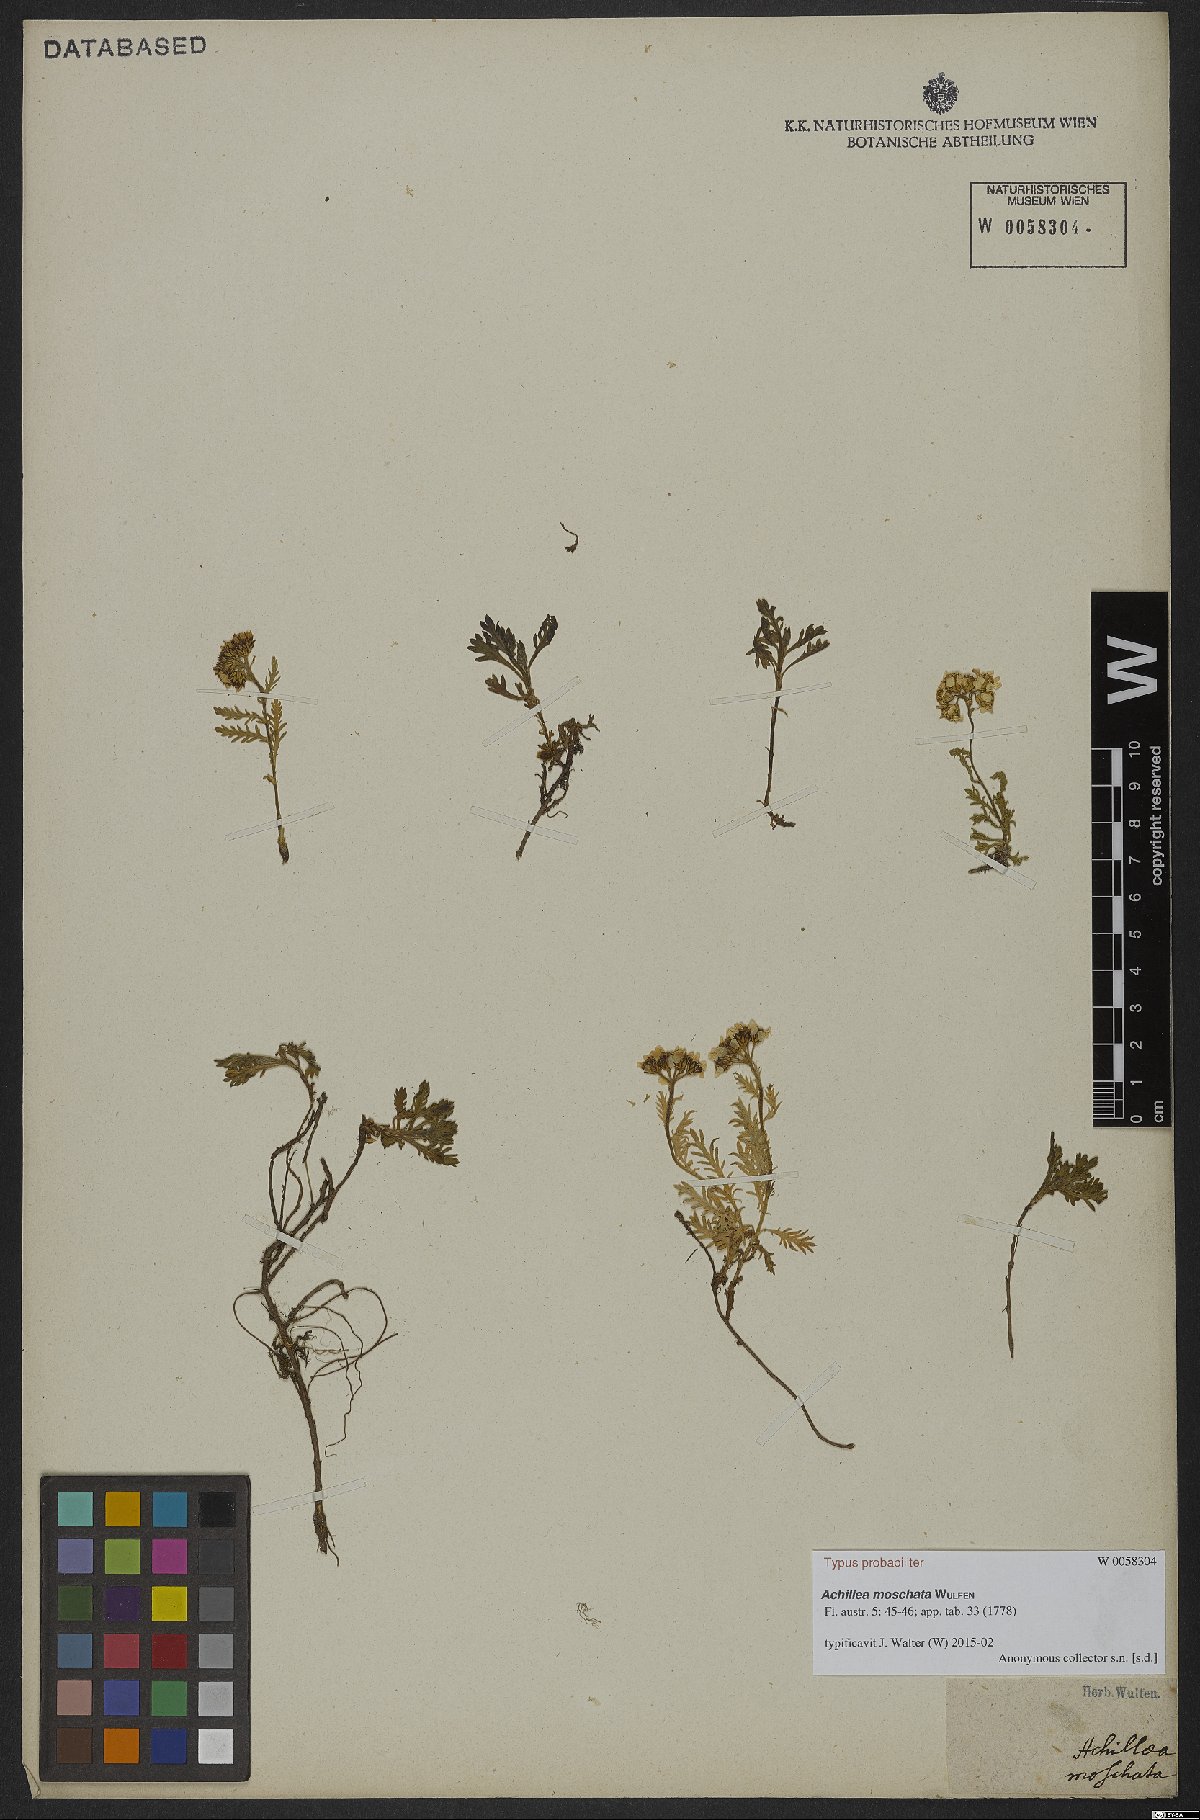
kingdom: Plantae
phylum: Tracheophyta
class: Magnoliopsida
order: Asterales
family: Asteraceae
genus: Achillea
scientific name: Achillea erba-rotta
